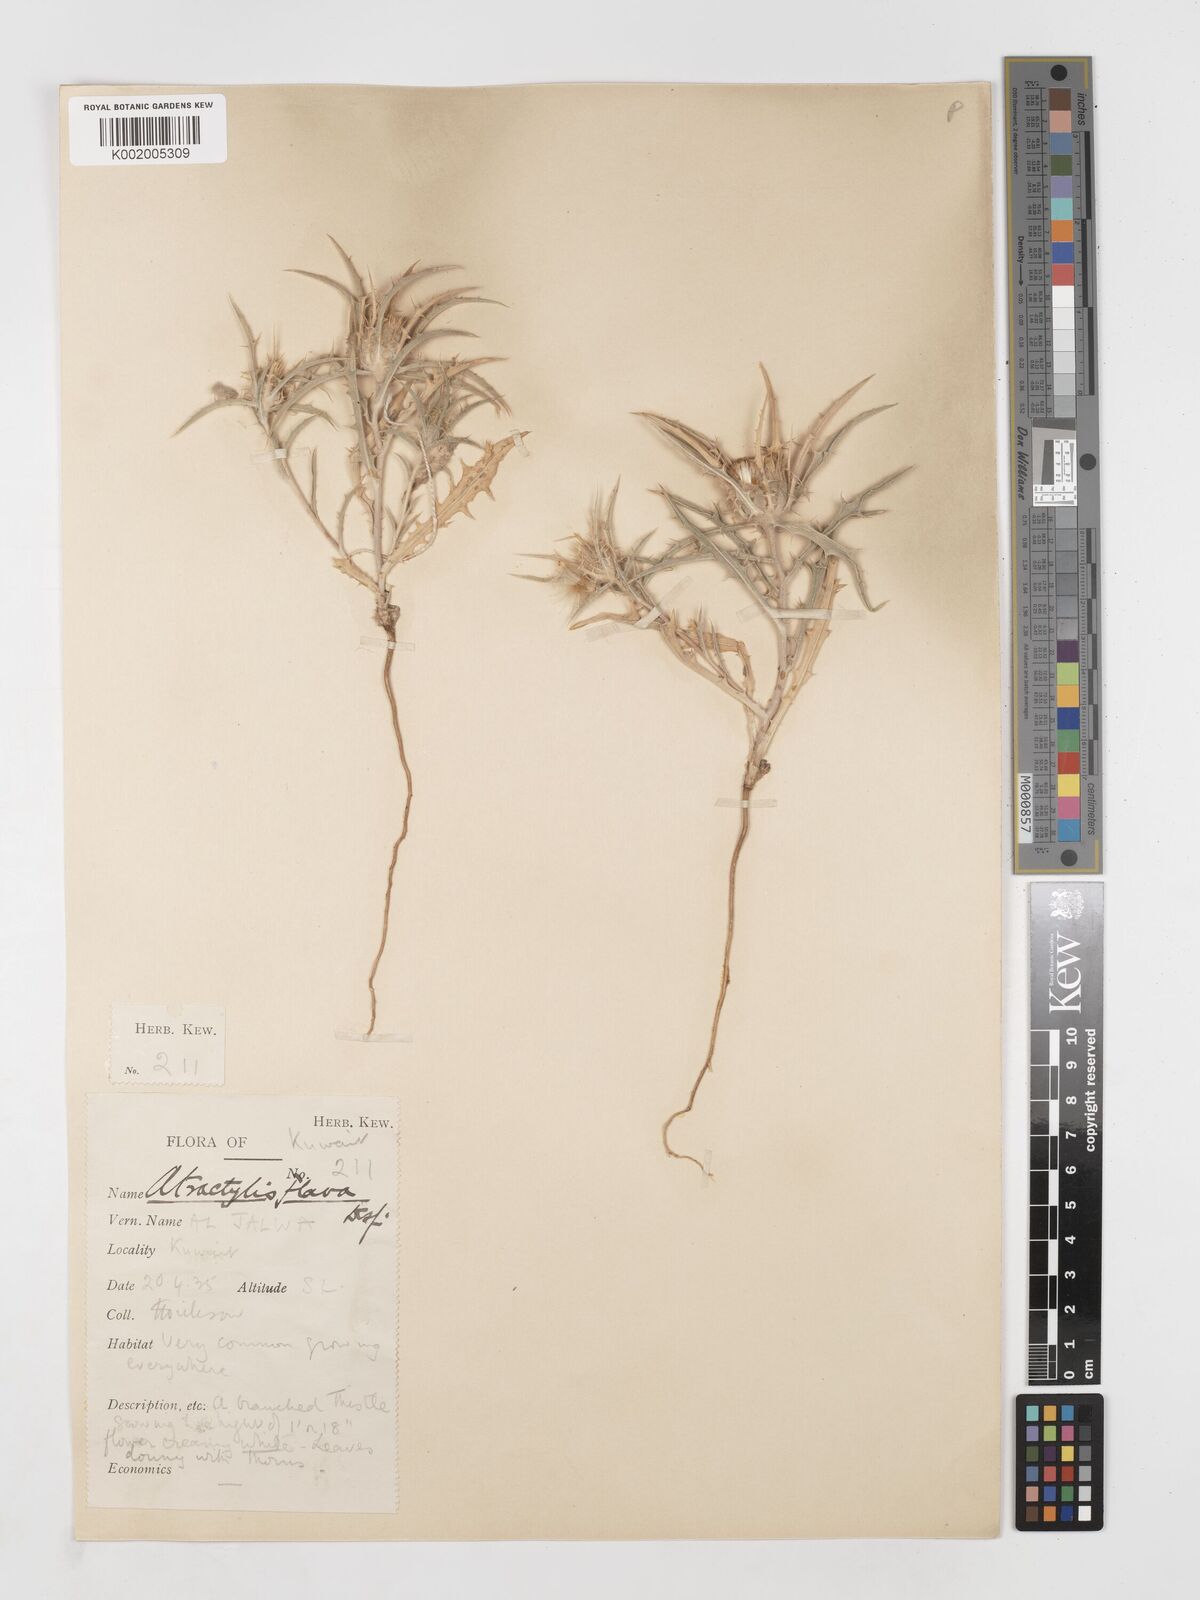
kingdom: Plantae
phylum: Tracheophyta
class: Magnoliopsida
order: Asterales
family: Asteraceae
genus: Atractylis
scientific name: Atractylis carduus
